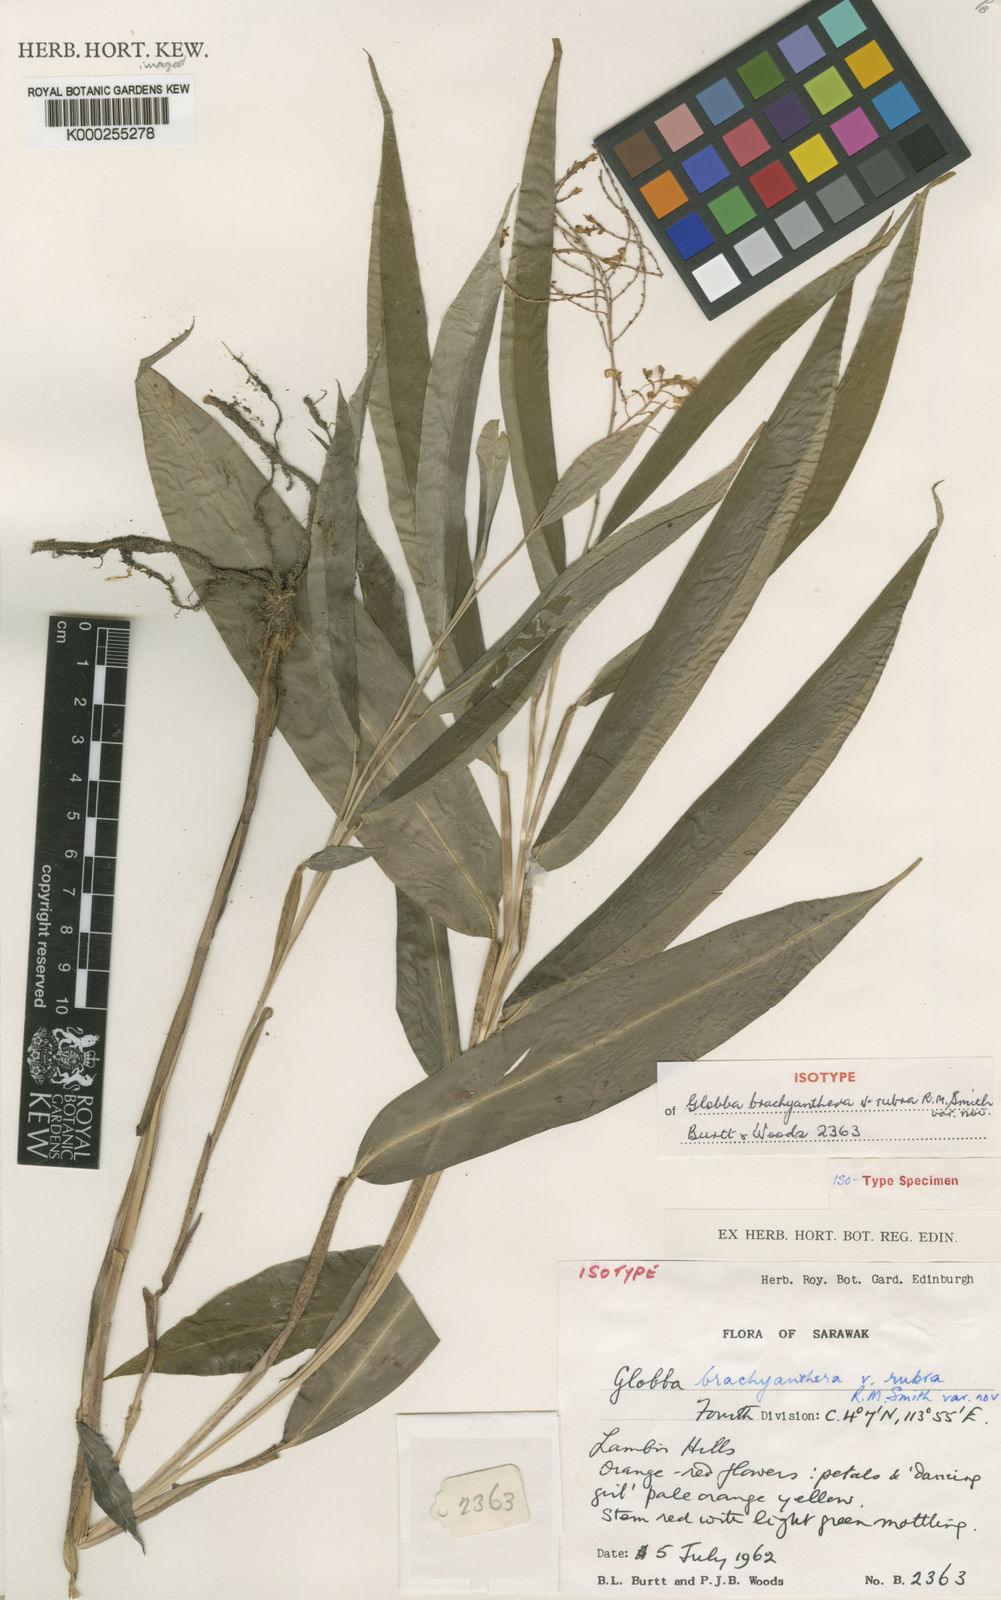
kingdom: Plantae
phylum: Tracheophyta
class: Liliopsida
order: Zingiberales
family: Zingiberaceae
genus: Globba
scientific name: Globba brachyanthera
